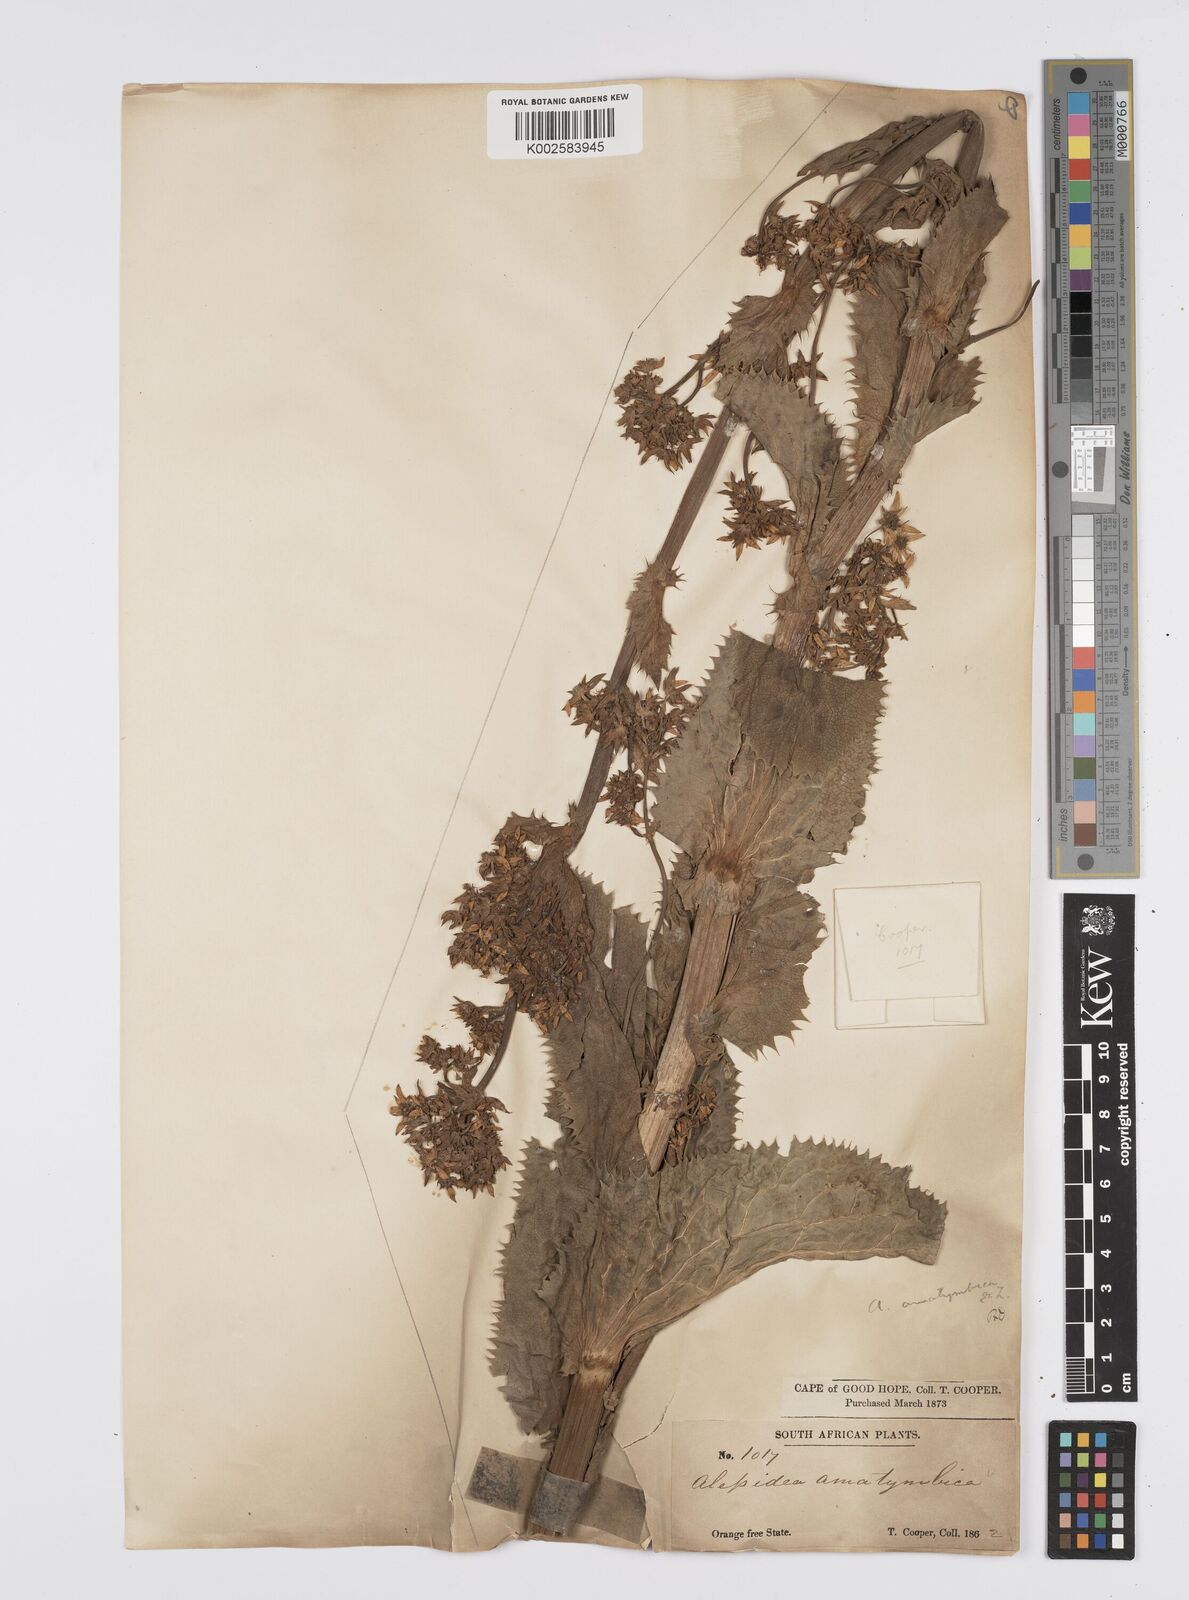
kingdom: Plantae
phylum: Tracheophyta
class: Magnoliopsida
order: Apiales
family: Apiaceae
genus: Alepidea
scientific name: Alepidea amatymbica
